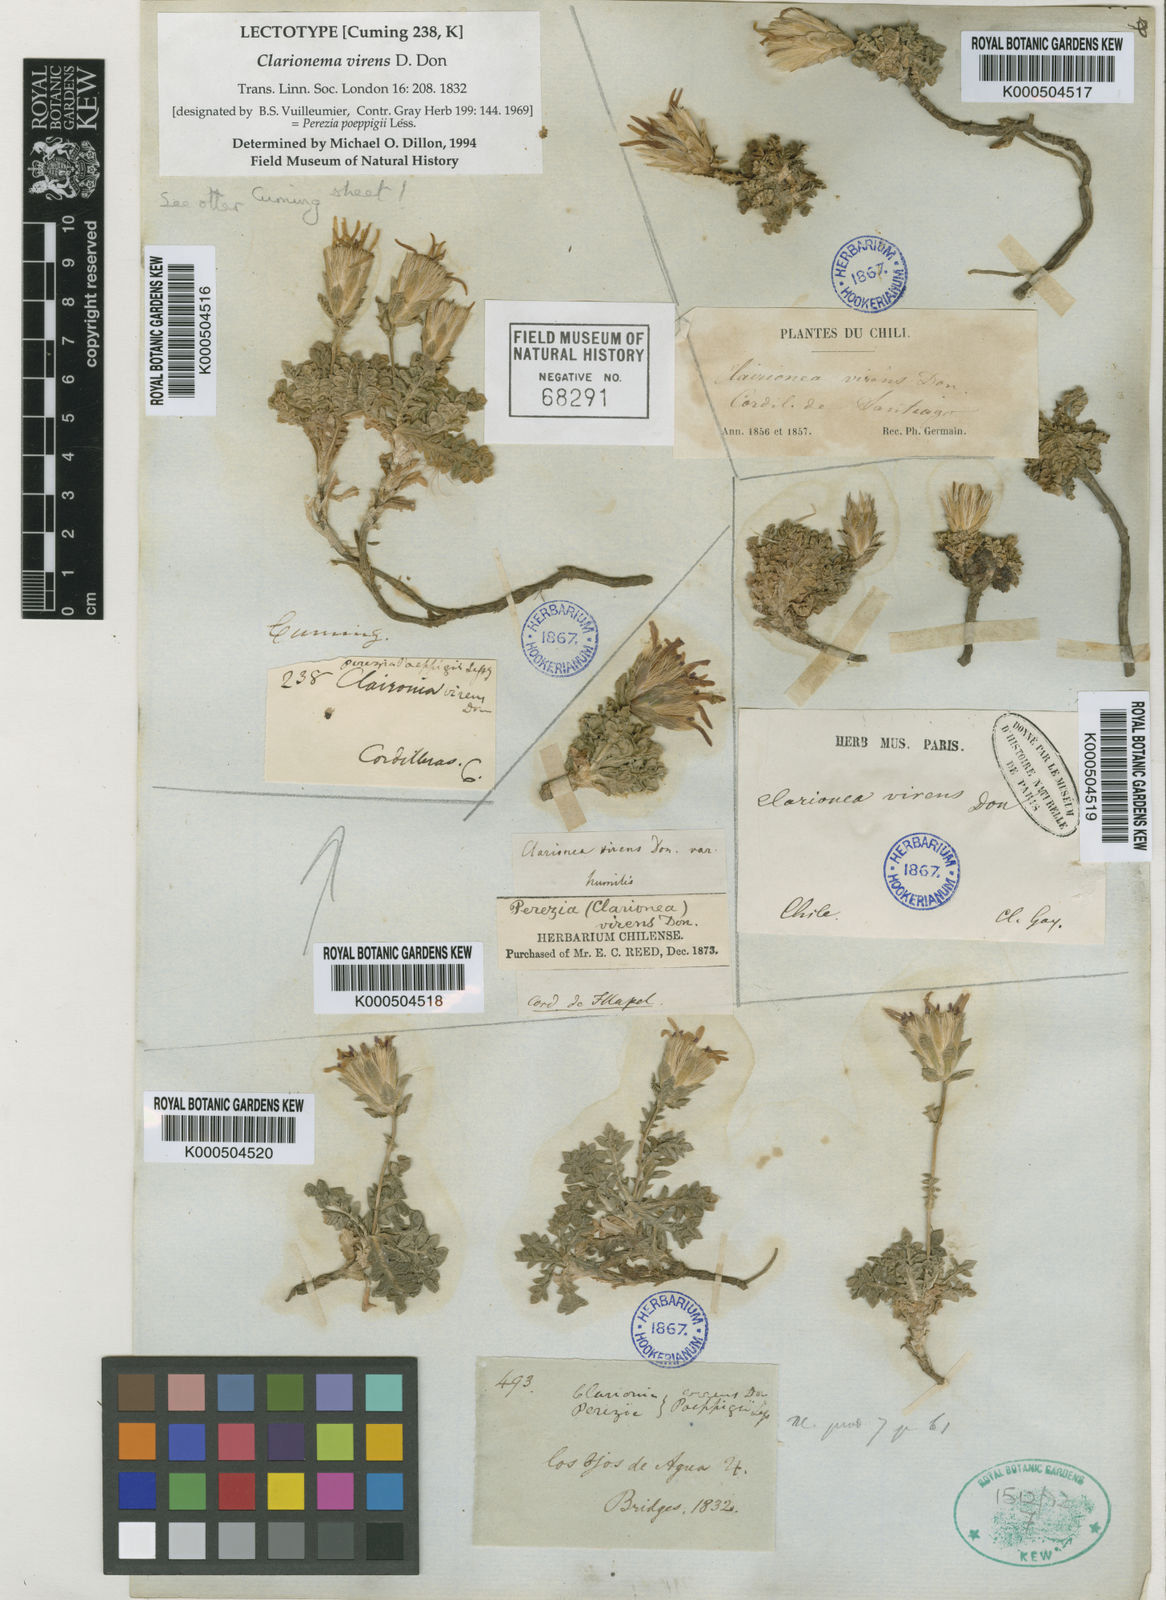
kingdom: Plantae
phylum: Tracheophyta
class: Magnoliopsida
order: Asterales
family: Asteraceae
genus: Perezia
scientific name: Perezia poeppigii
